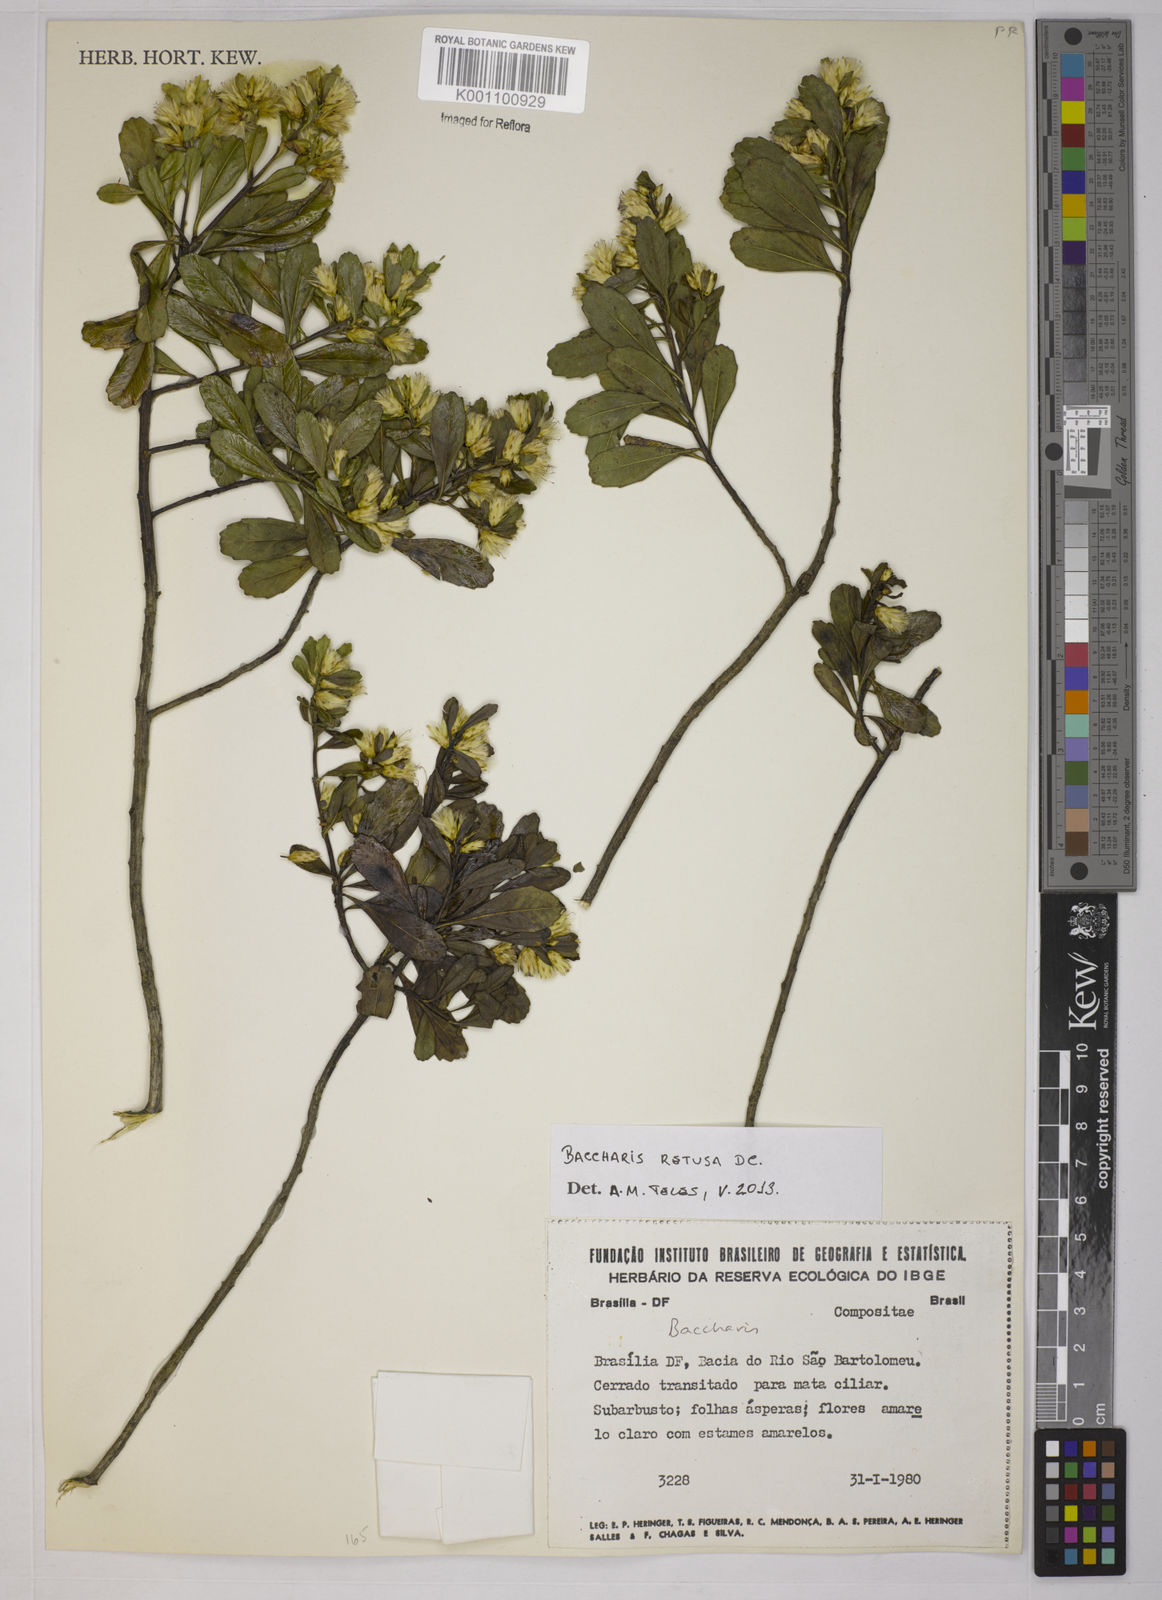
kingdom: Plantae
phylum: Tracheophyta
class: Magnoliopsida
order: Asterales
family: Asteraceae
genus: Baccharis
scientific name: Baccharis retusa
